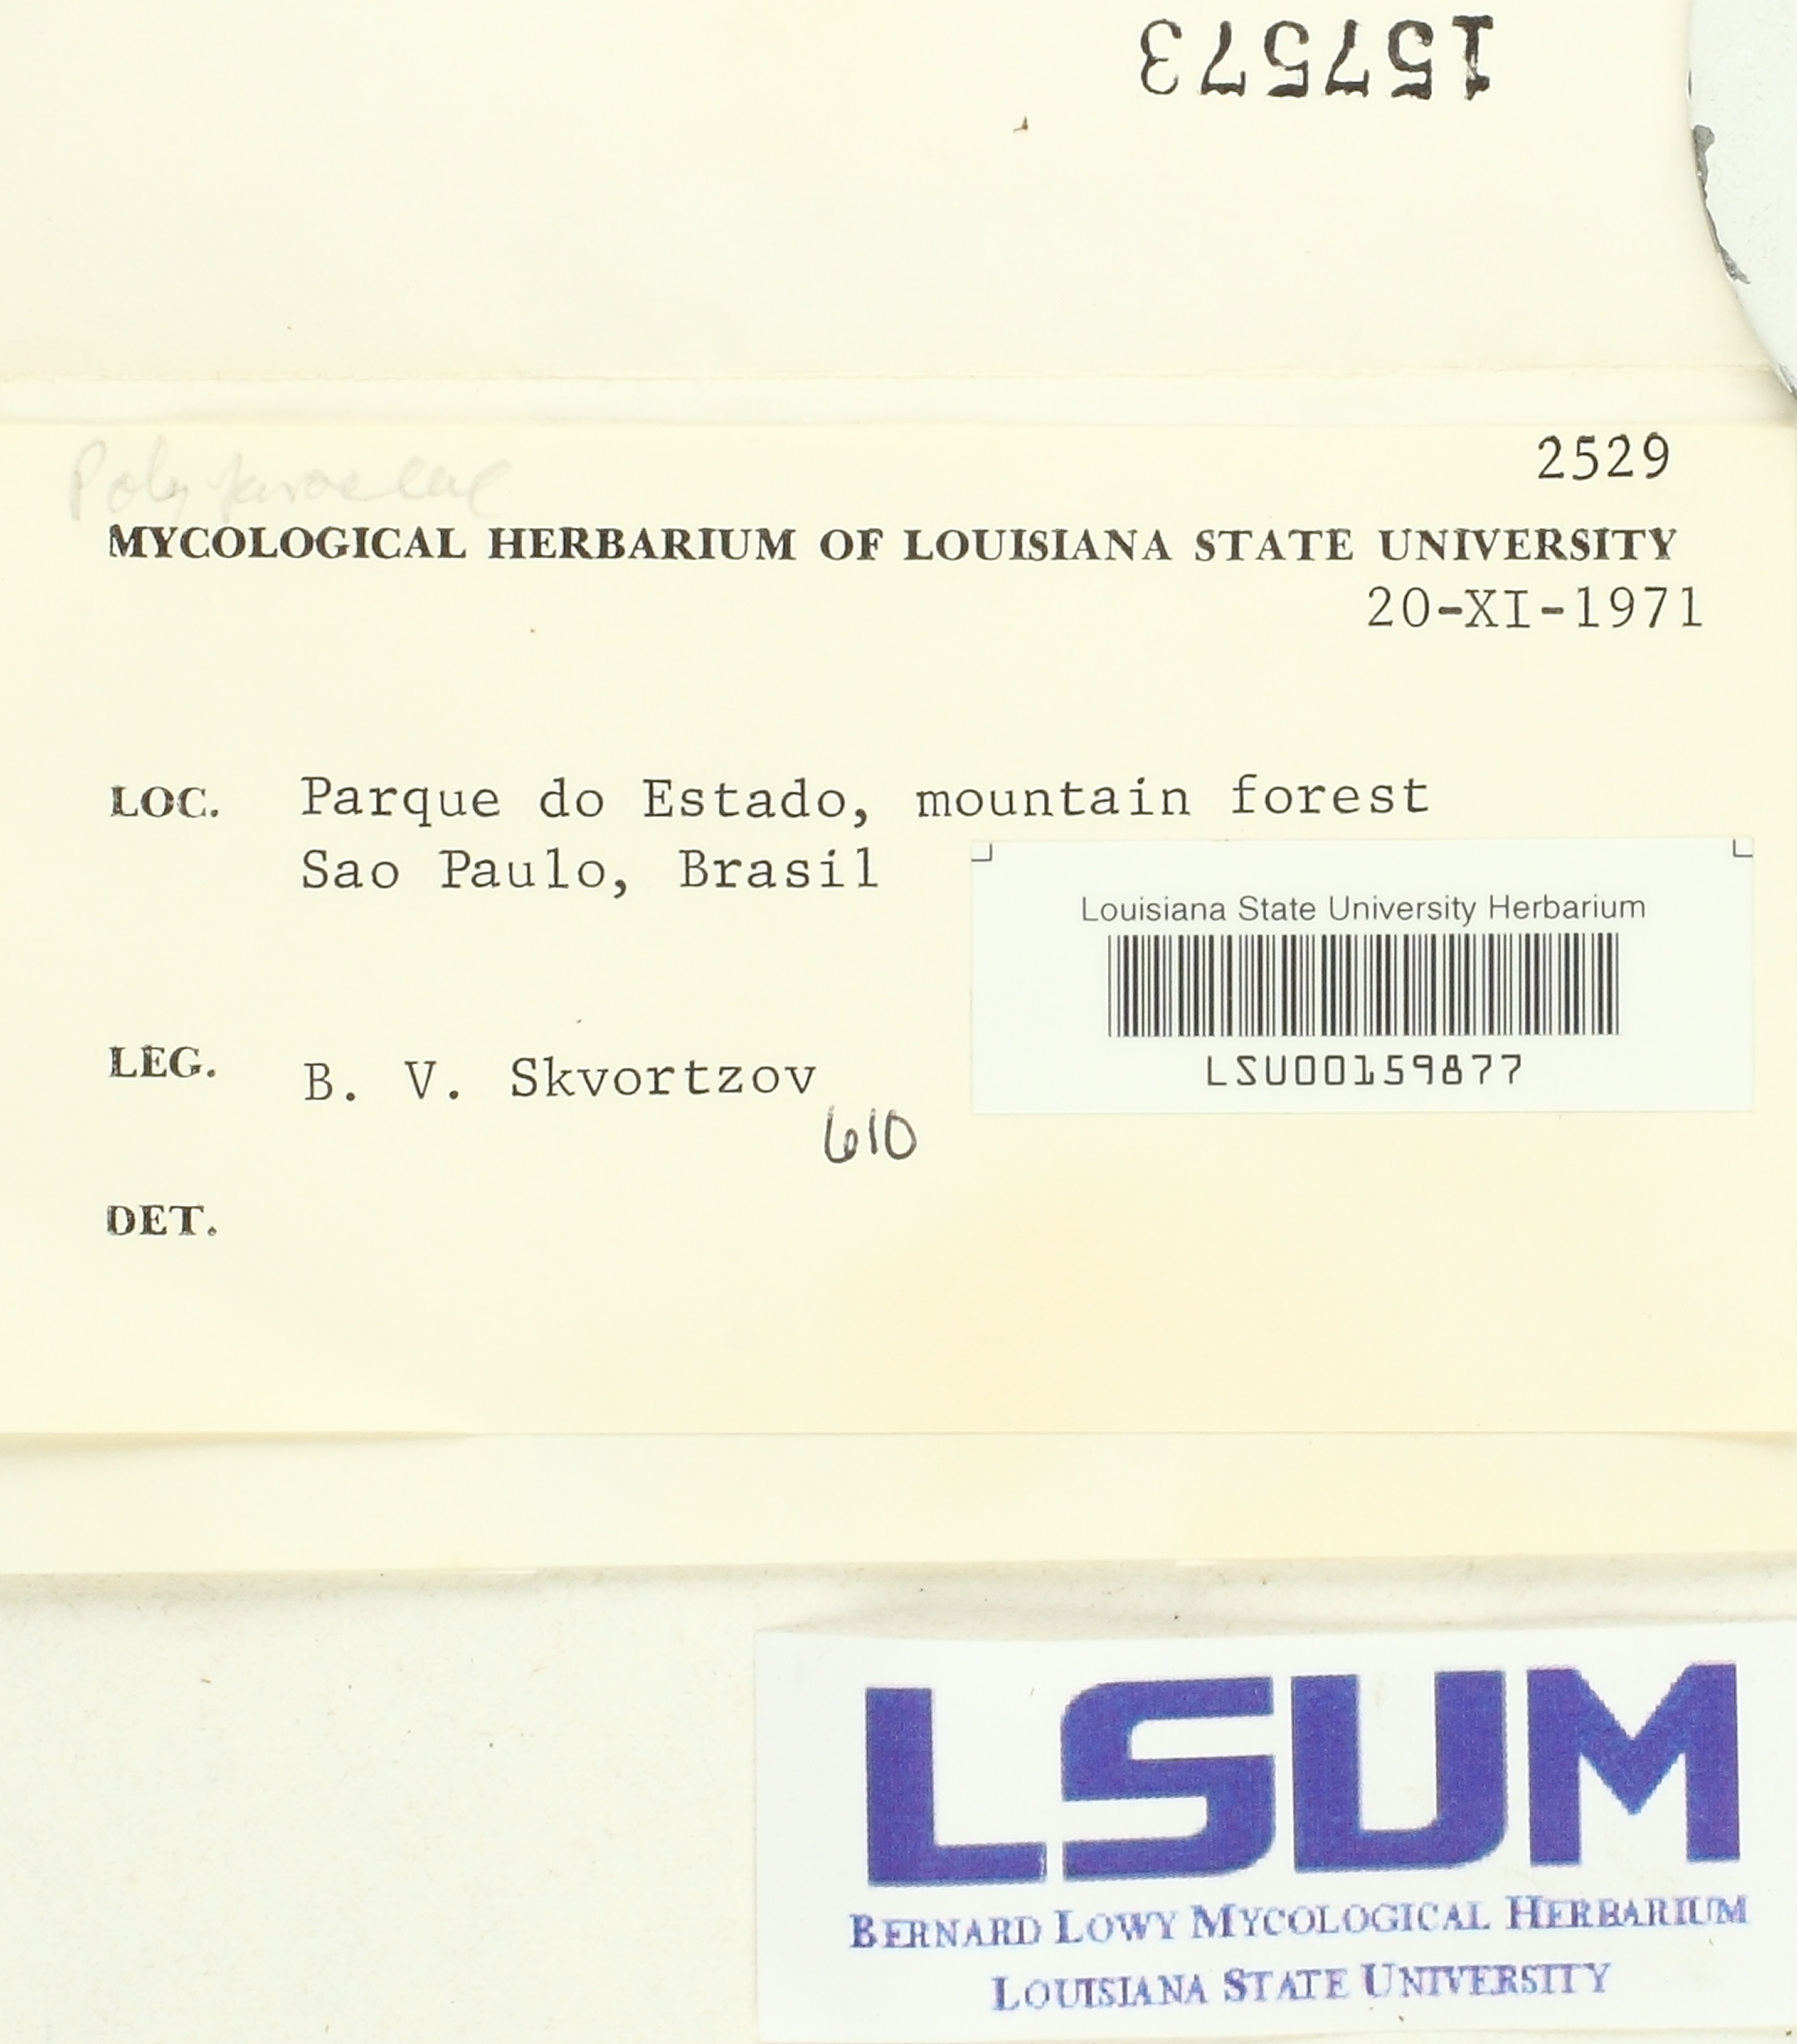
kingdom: Fungi
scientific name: Fungi
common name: Fungi
